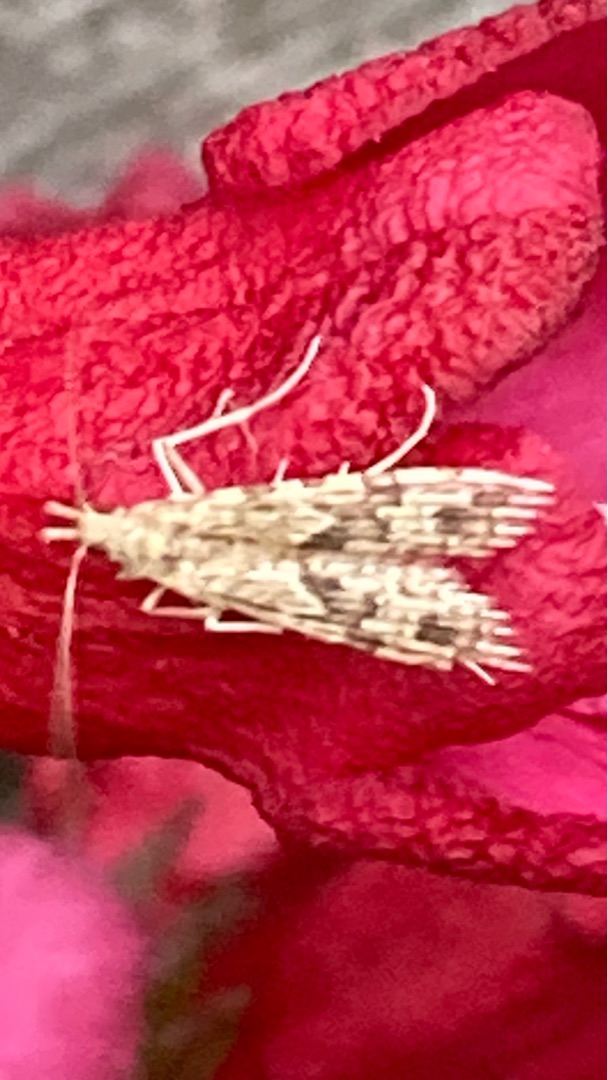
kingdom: Animalia
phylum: Arthropoda
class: Insecta
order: Lepidoptera
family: Alucitidae
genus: Alucita
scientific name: Alucita hexadactyla
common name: Kaprifoliefjermøl
